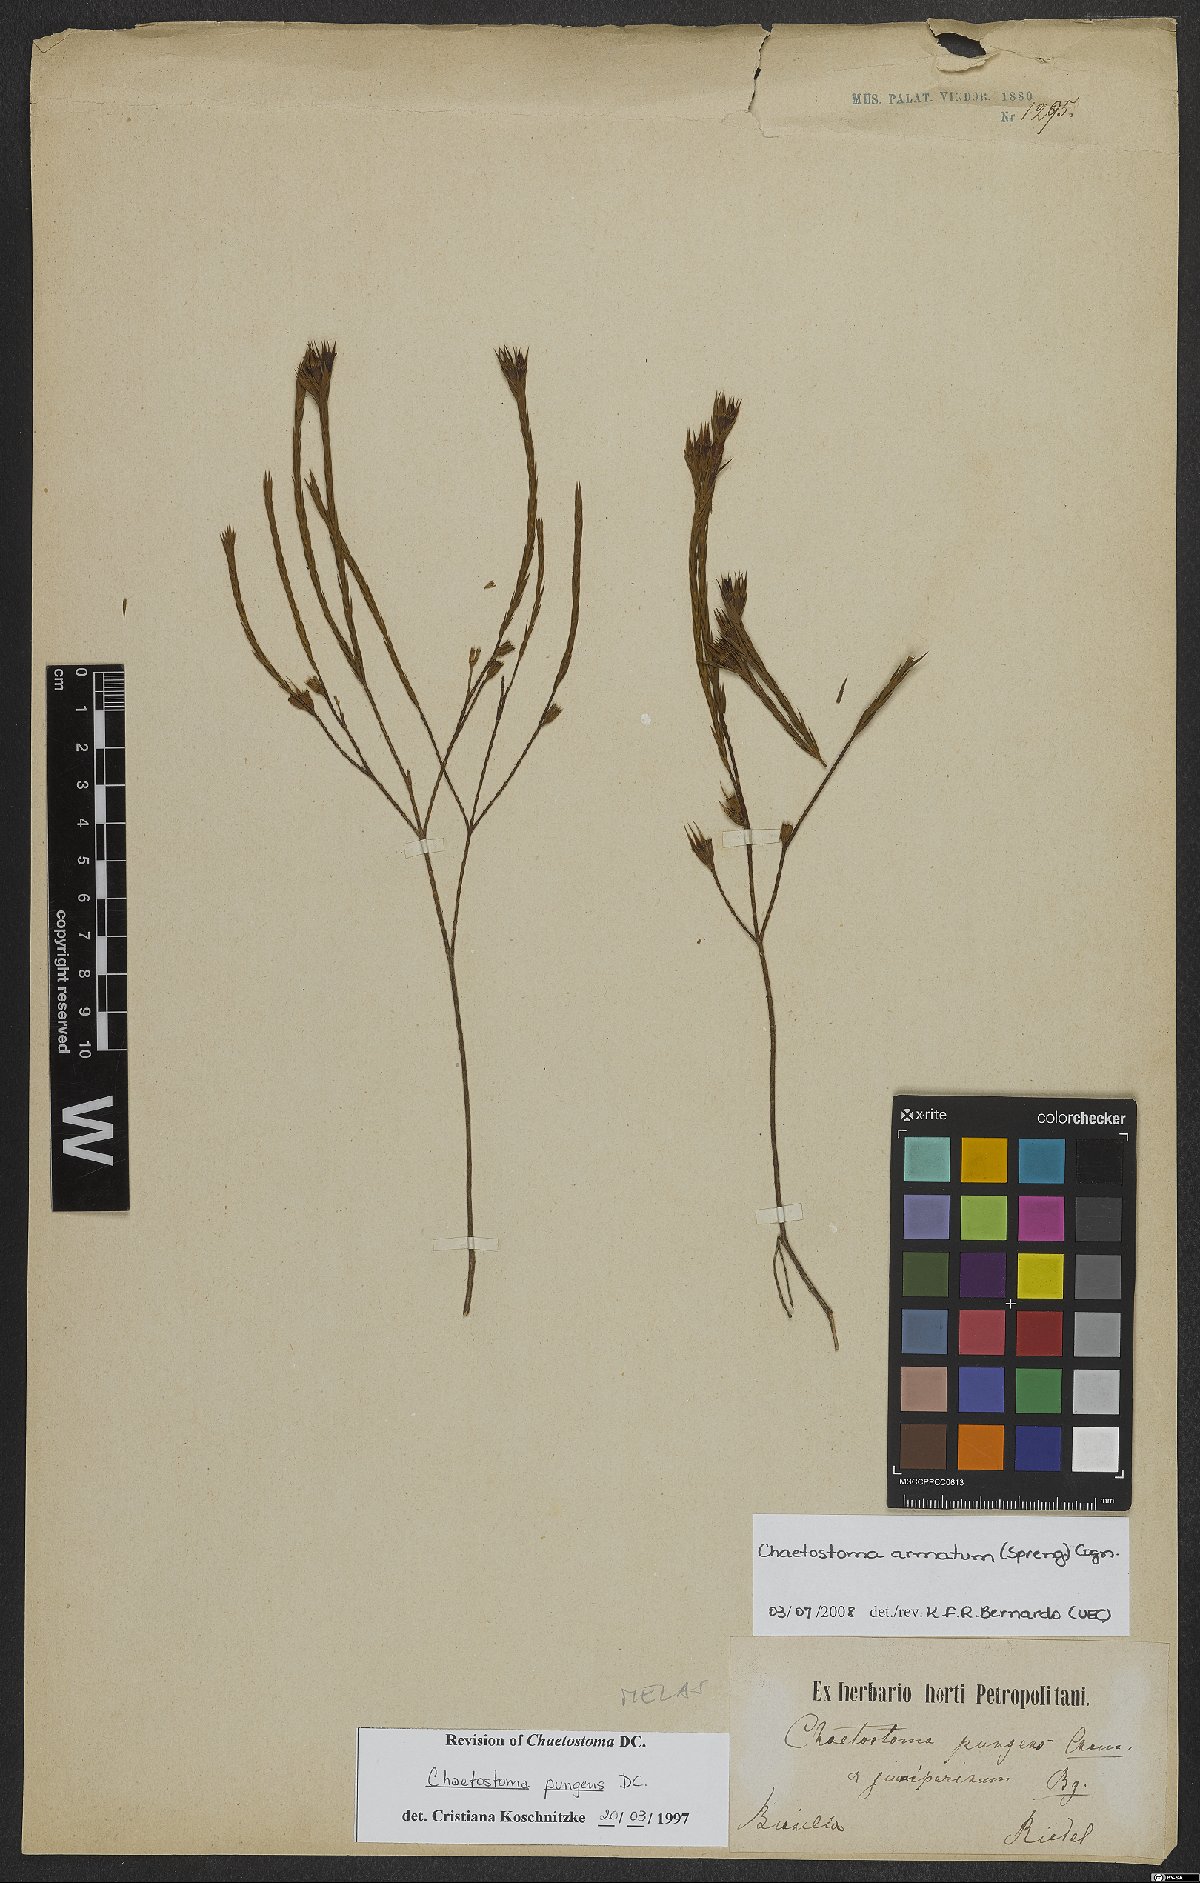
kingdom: Plantae
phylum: Tracheophyta
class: Magnoliopsida
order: Myrtales
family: Melastomataceae
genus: Microlicia
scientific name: Microlicia armata
